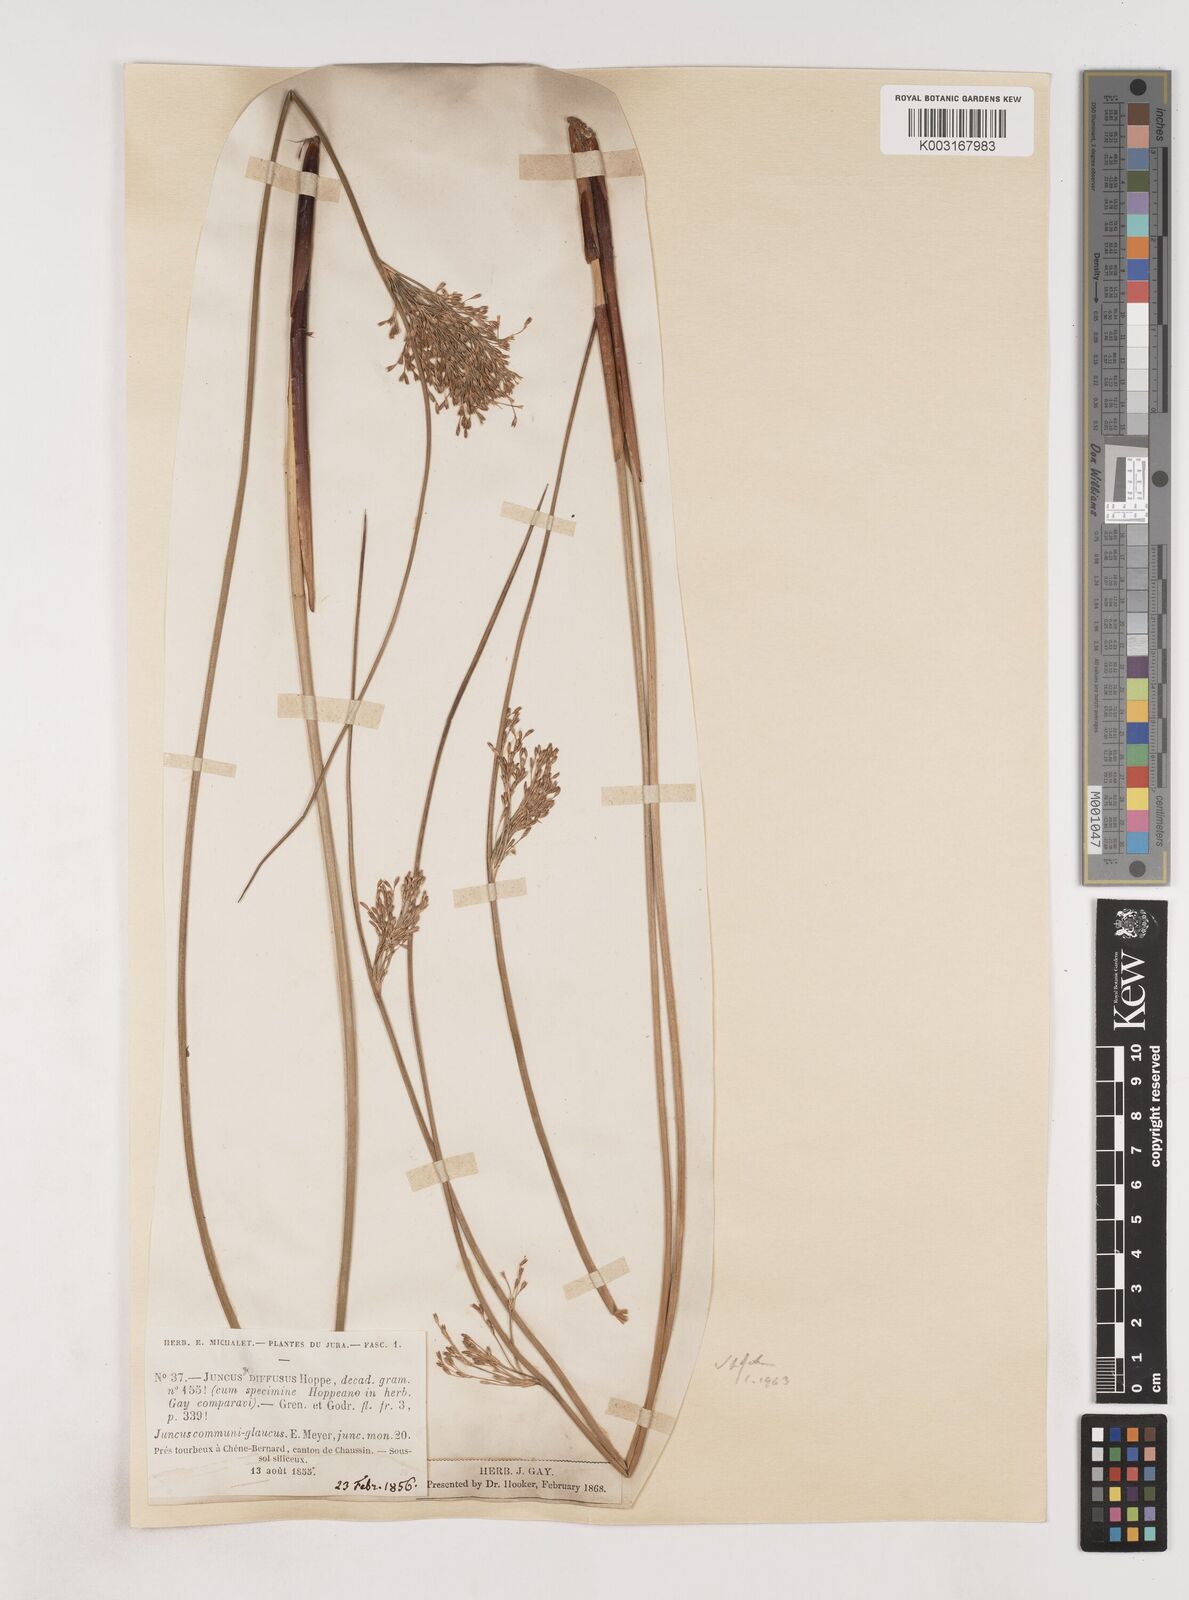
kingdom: Plantae
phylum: Tracheophyta
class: Liliopsida
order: Poales
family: Juncaceae
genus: Juncus
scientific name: Juncus effusus
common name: Soft rush
